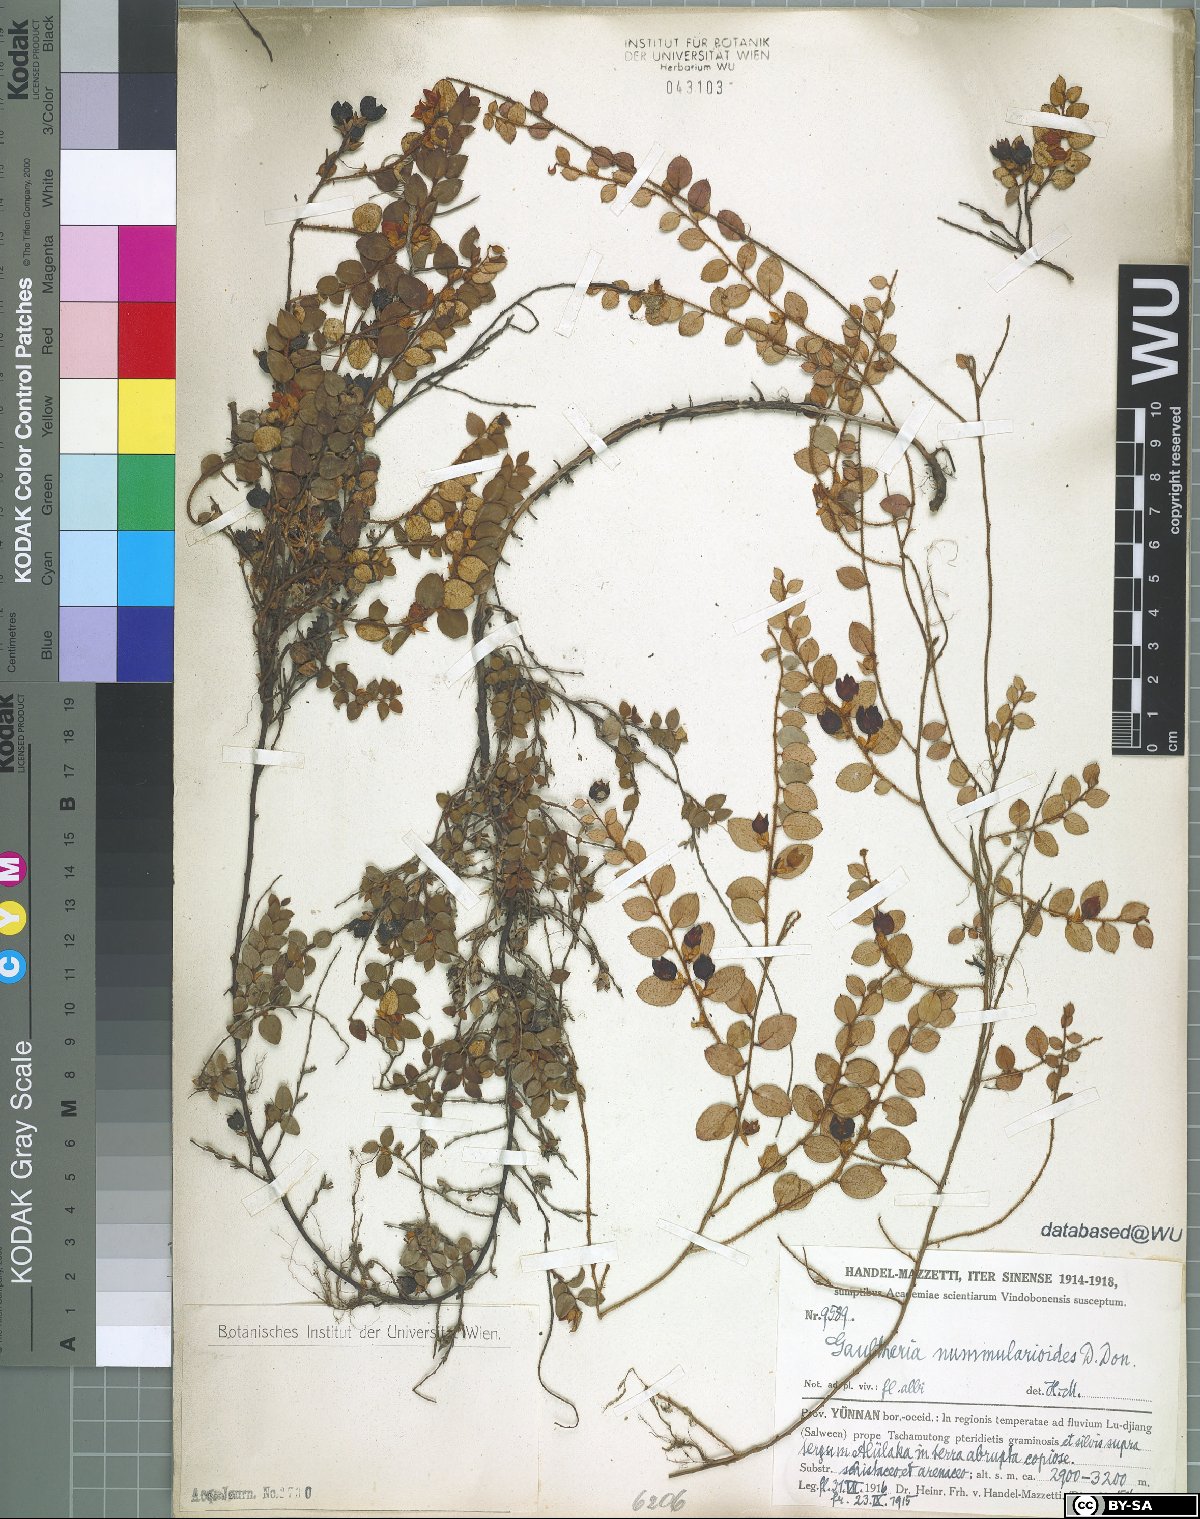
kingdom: Plantae
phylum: Tracheophyta
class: Magnoliopsida
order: Ericales
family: Ericaceae
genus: Gaultheria
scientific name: Gaultheria nummularioides
